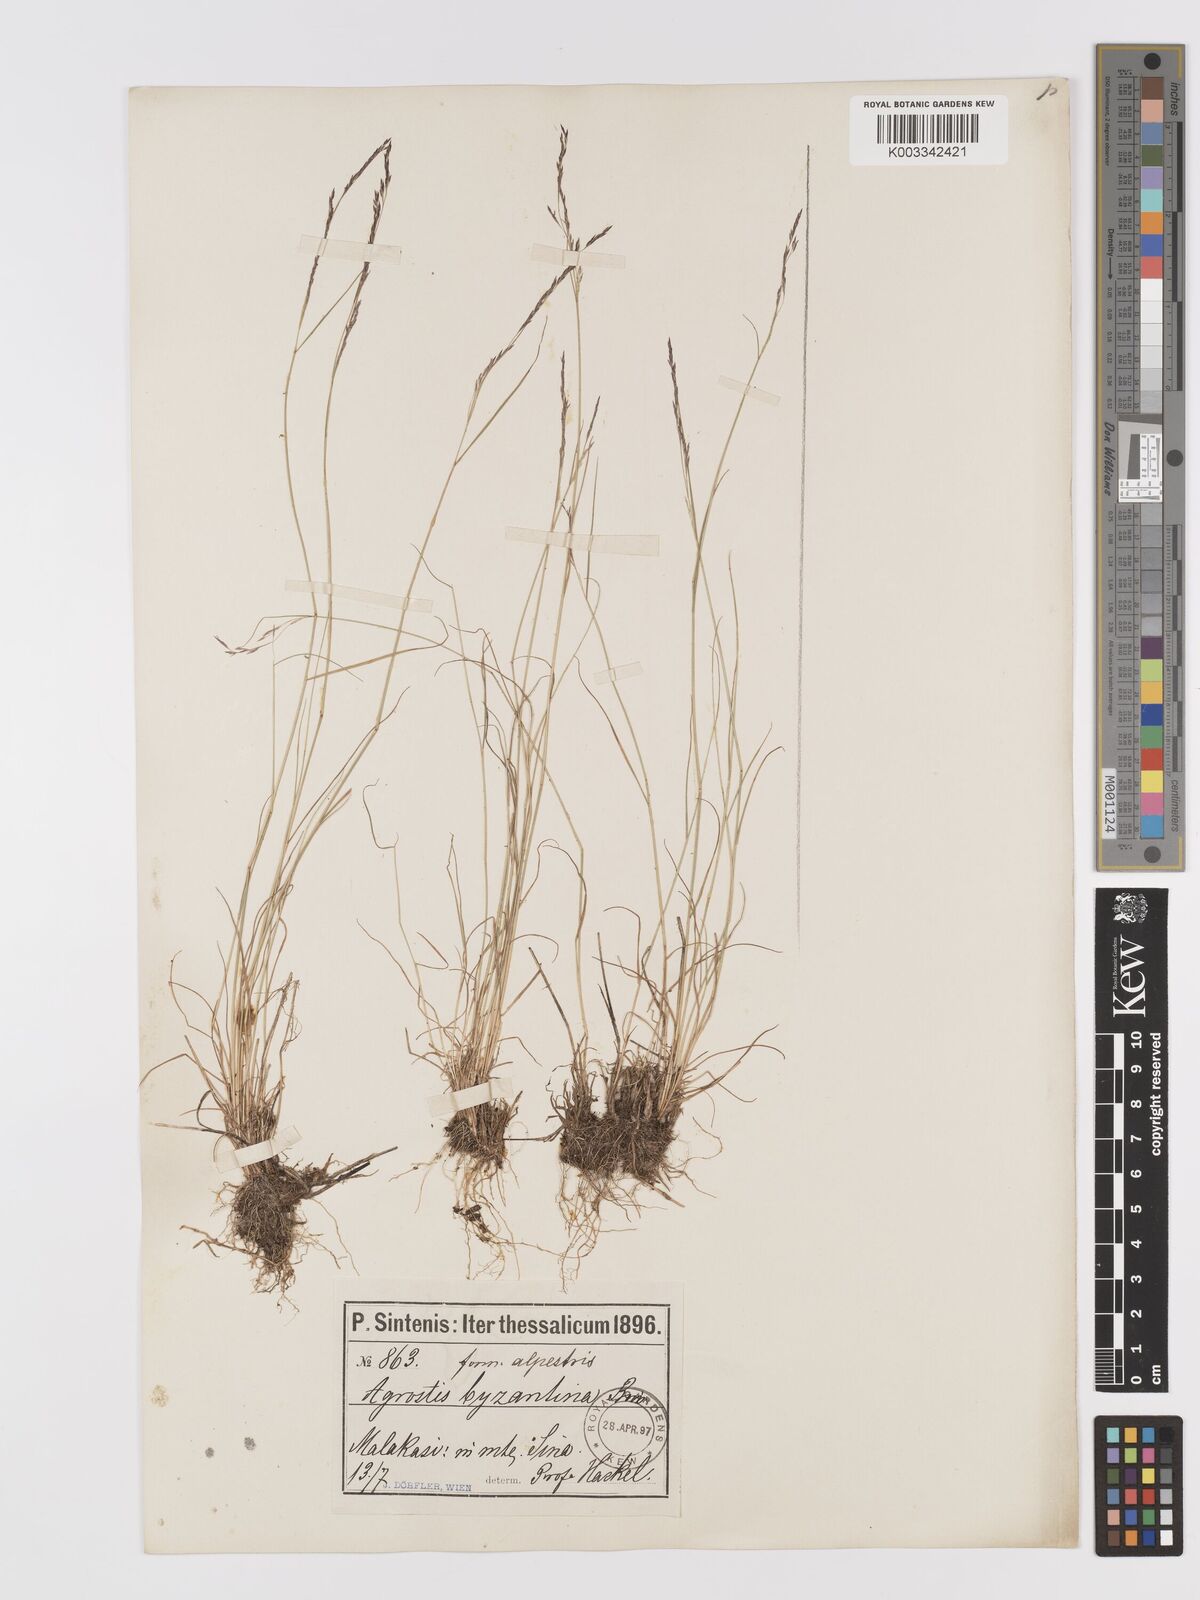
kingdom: Plantae
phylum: Tracheophyta
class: Liliopsida
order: Poales
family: Poaceae
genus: Agrostis
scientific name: Agrostis castellana
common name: Highland bent
